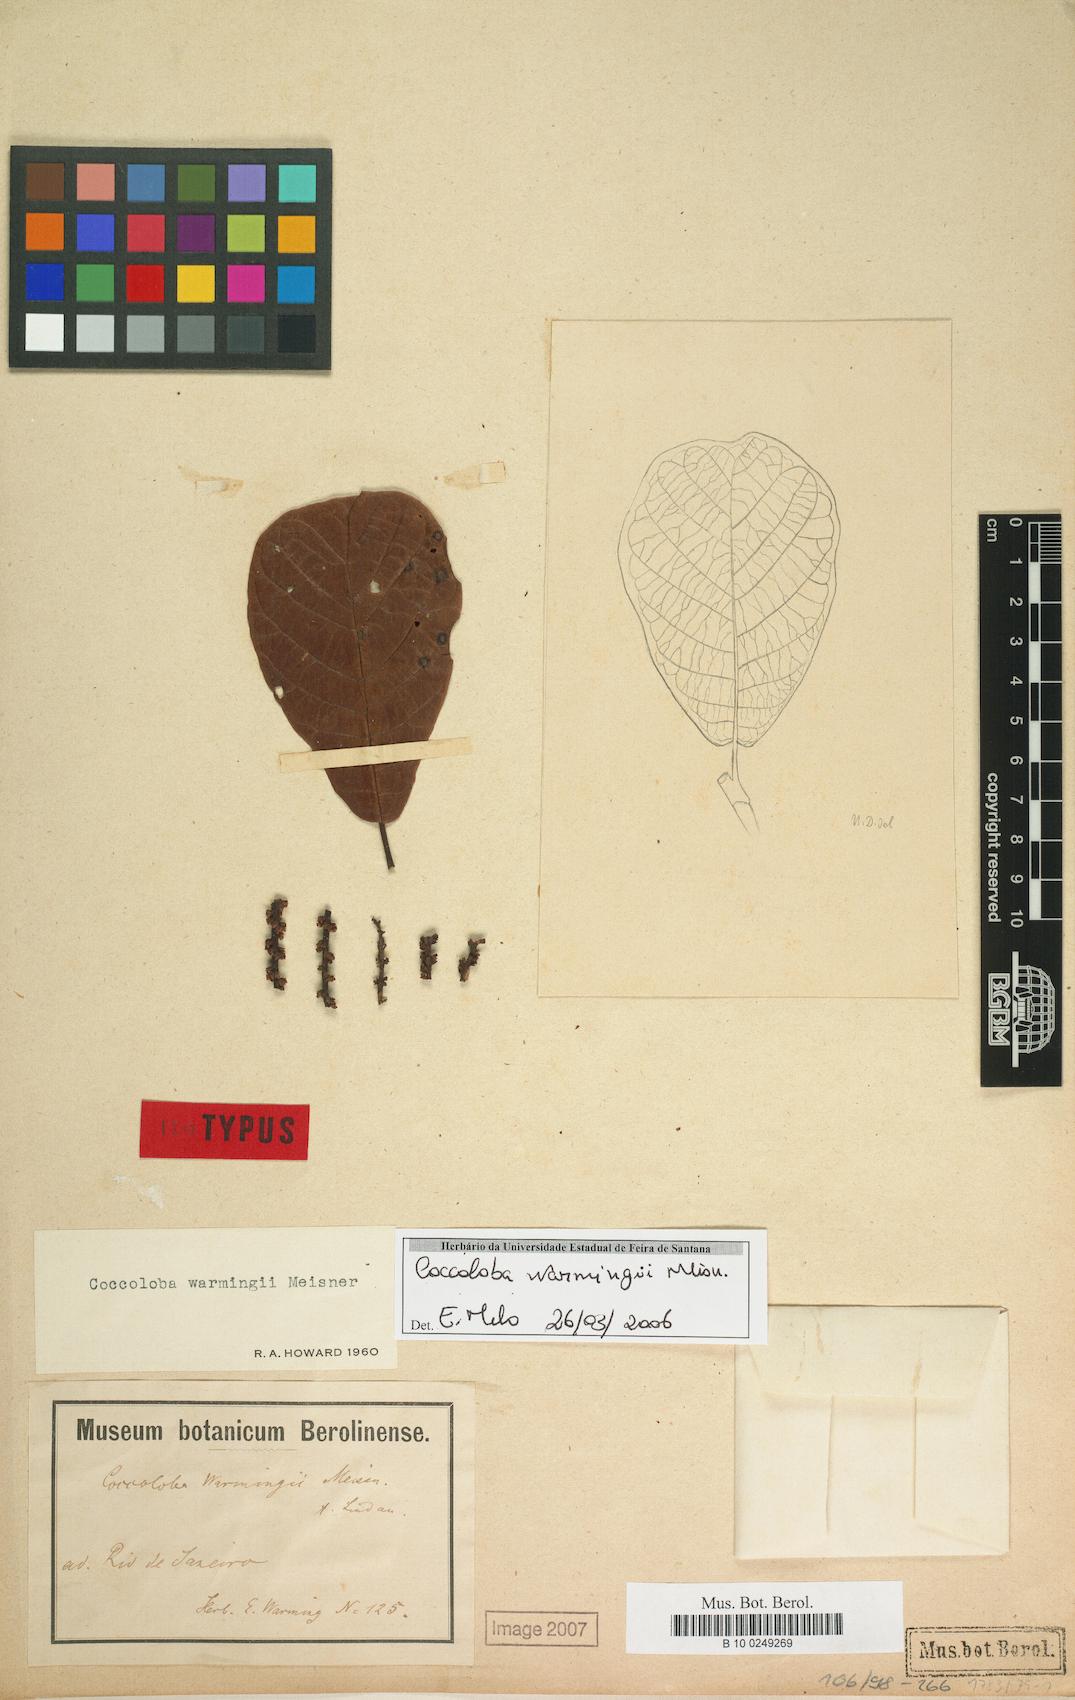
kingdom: Plantae
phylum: Tracheophyta
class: Magnoliopsida
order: Caryophyllales
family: Polygonaceae
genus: Coccoloba
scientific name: Coccoloba warmingii
